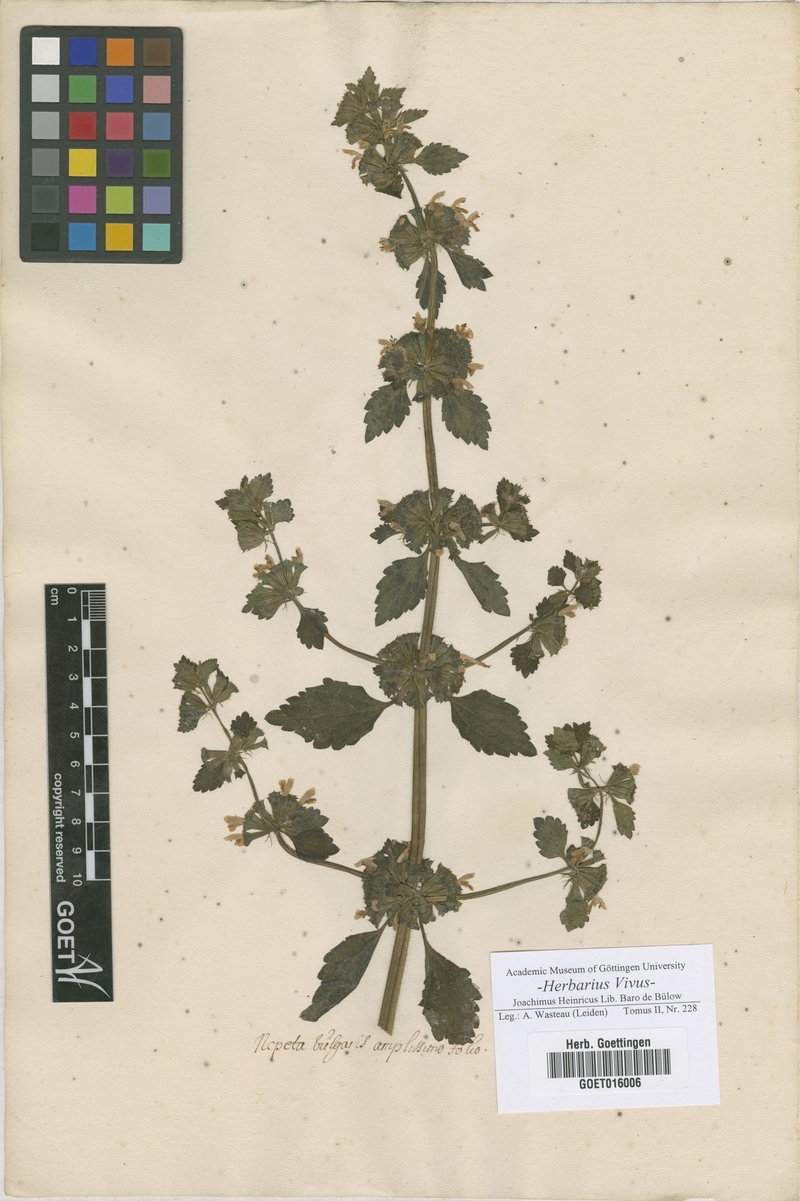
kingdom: Plantae
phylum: Tracheophyta
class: Magnoliopsida
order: Lamiales
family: Lamiaceae
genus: Nepeta
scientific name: Nepeta
